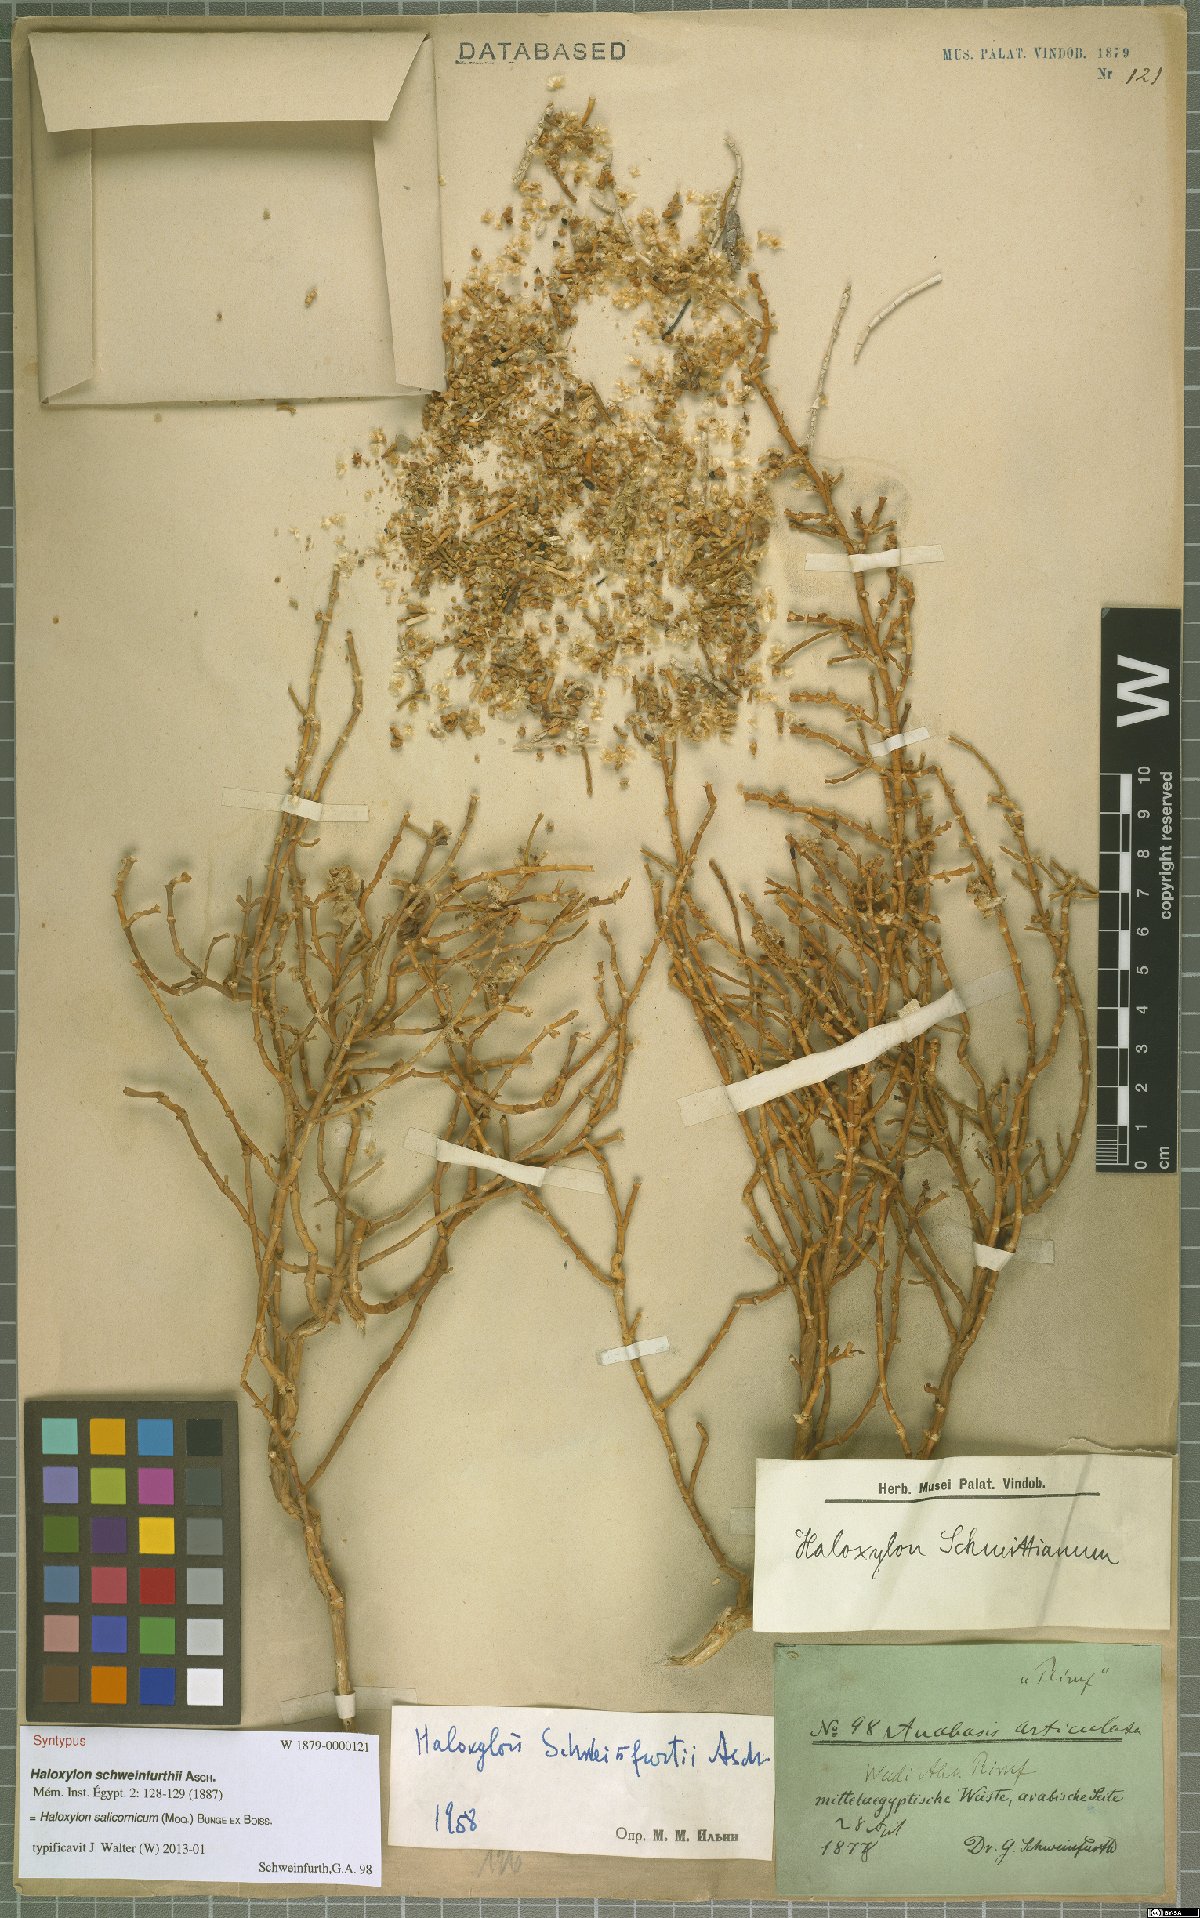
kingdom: Plantae
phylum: Tracheophyta
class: Magnoliopsida
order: Caryophyllales
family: Amaranthaceae
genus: Haloxylon
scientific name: Haloxylon salicornicum
